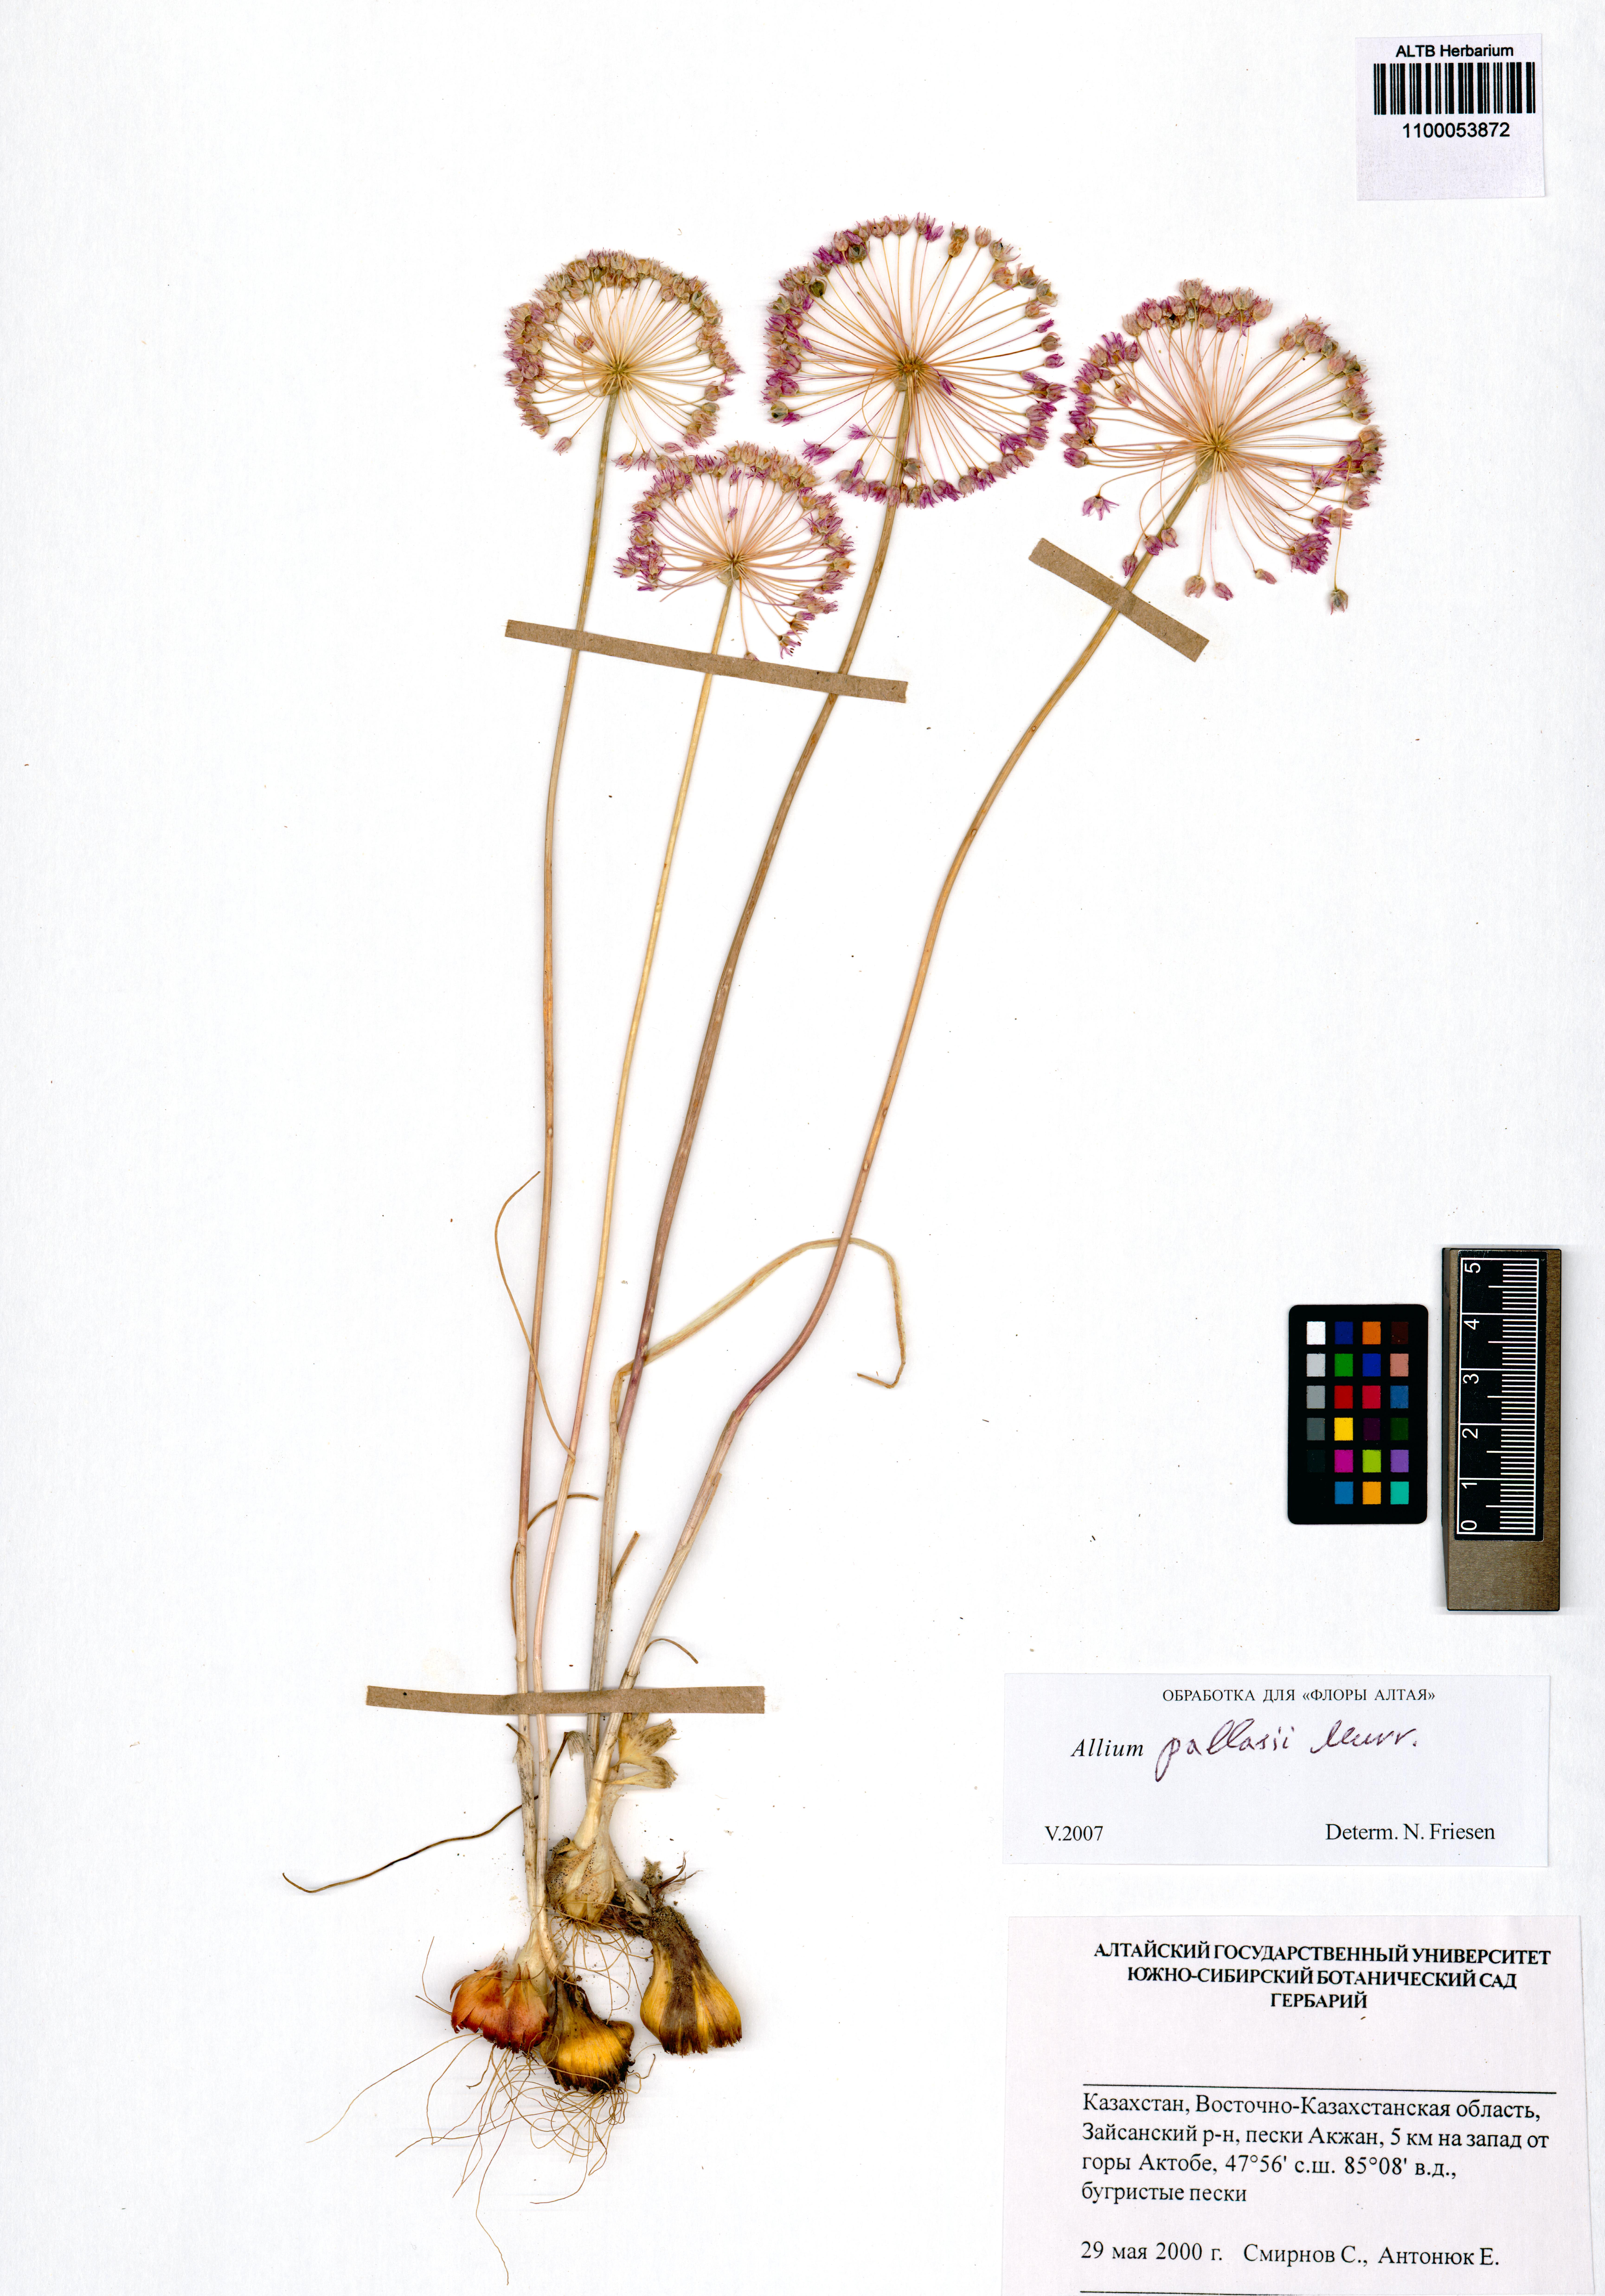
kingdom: Plantae
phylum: Tracheophyta
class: Liliopsida
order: Asparagales
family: Amaryllidaceae
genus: Allium
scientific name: Allium pallasii
